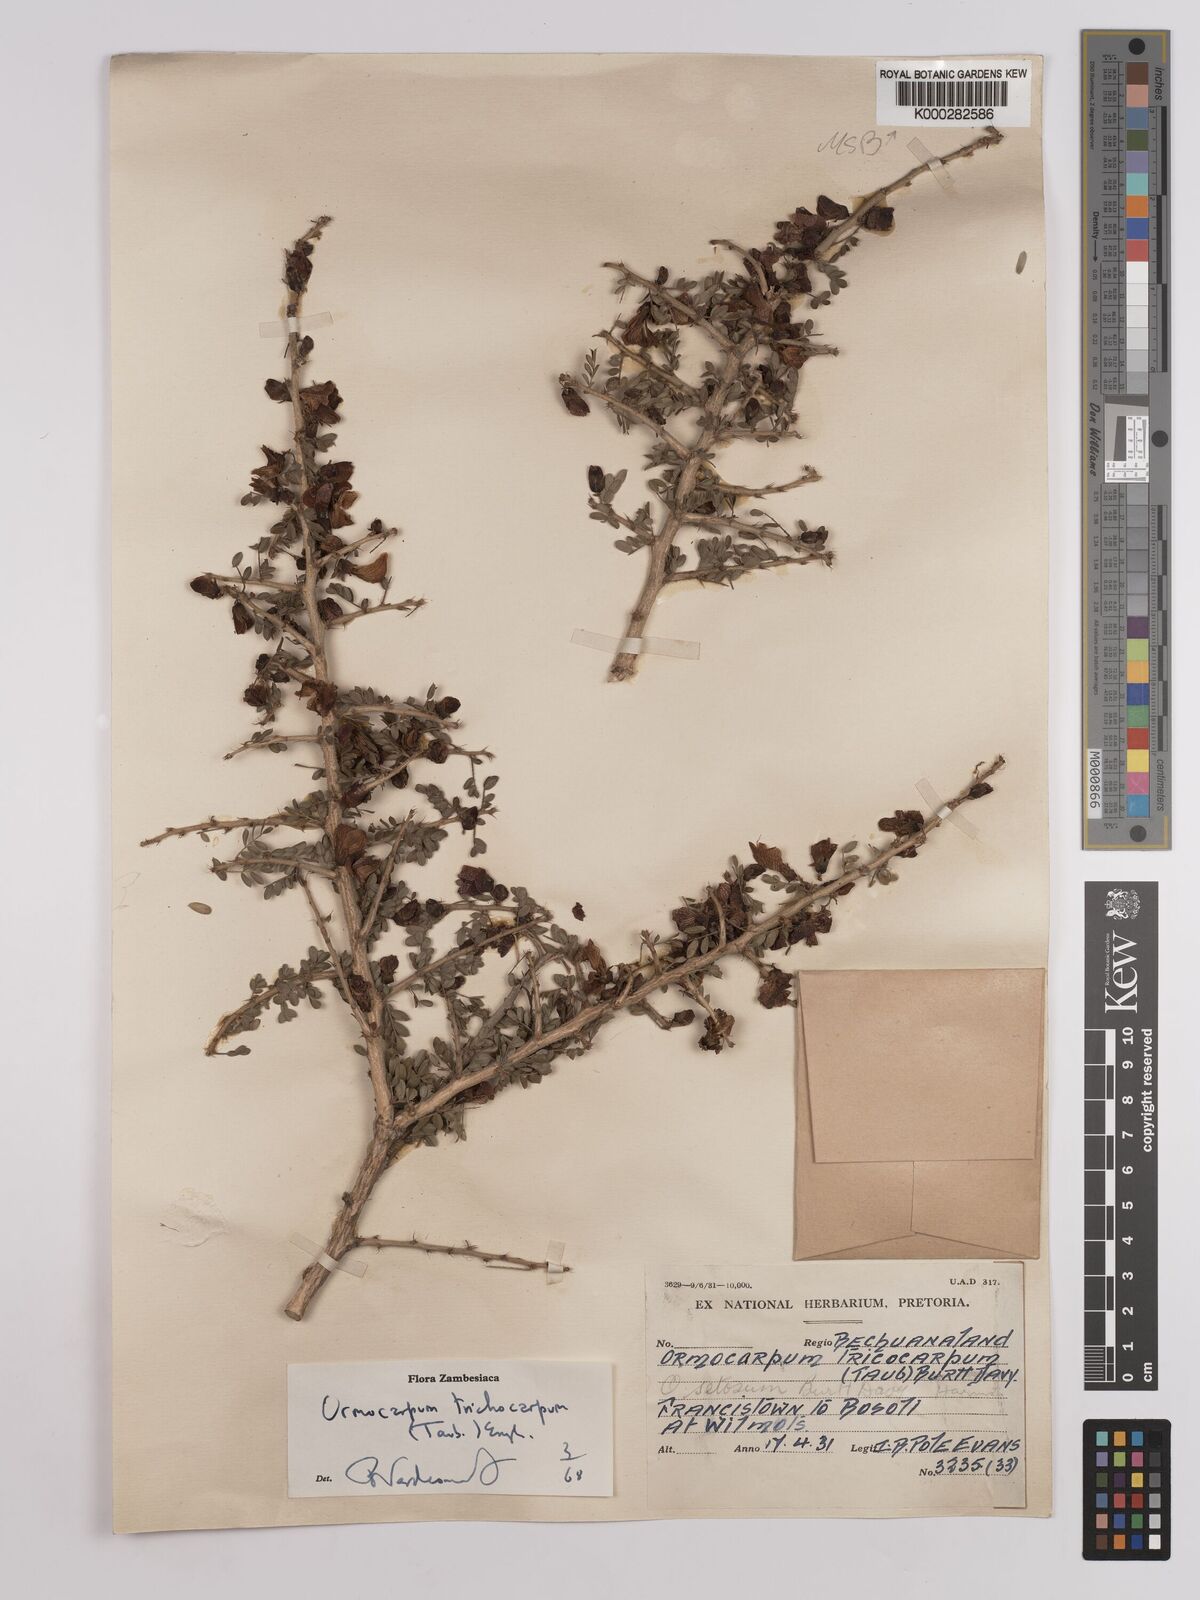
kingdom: Plantae
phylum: Tracheophyta
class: Magnoliopsida
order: Fabales
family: Fabaceae
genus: Ormocarpum
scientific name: Ormocarpum trichocarpum
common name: Caterpillar bush
